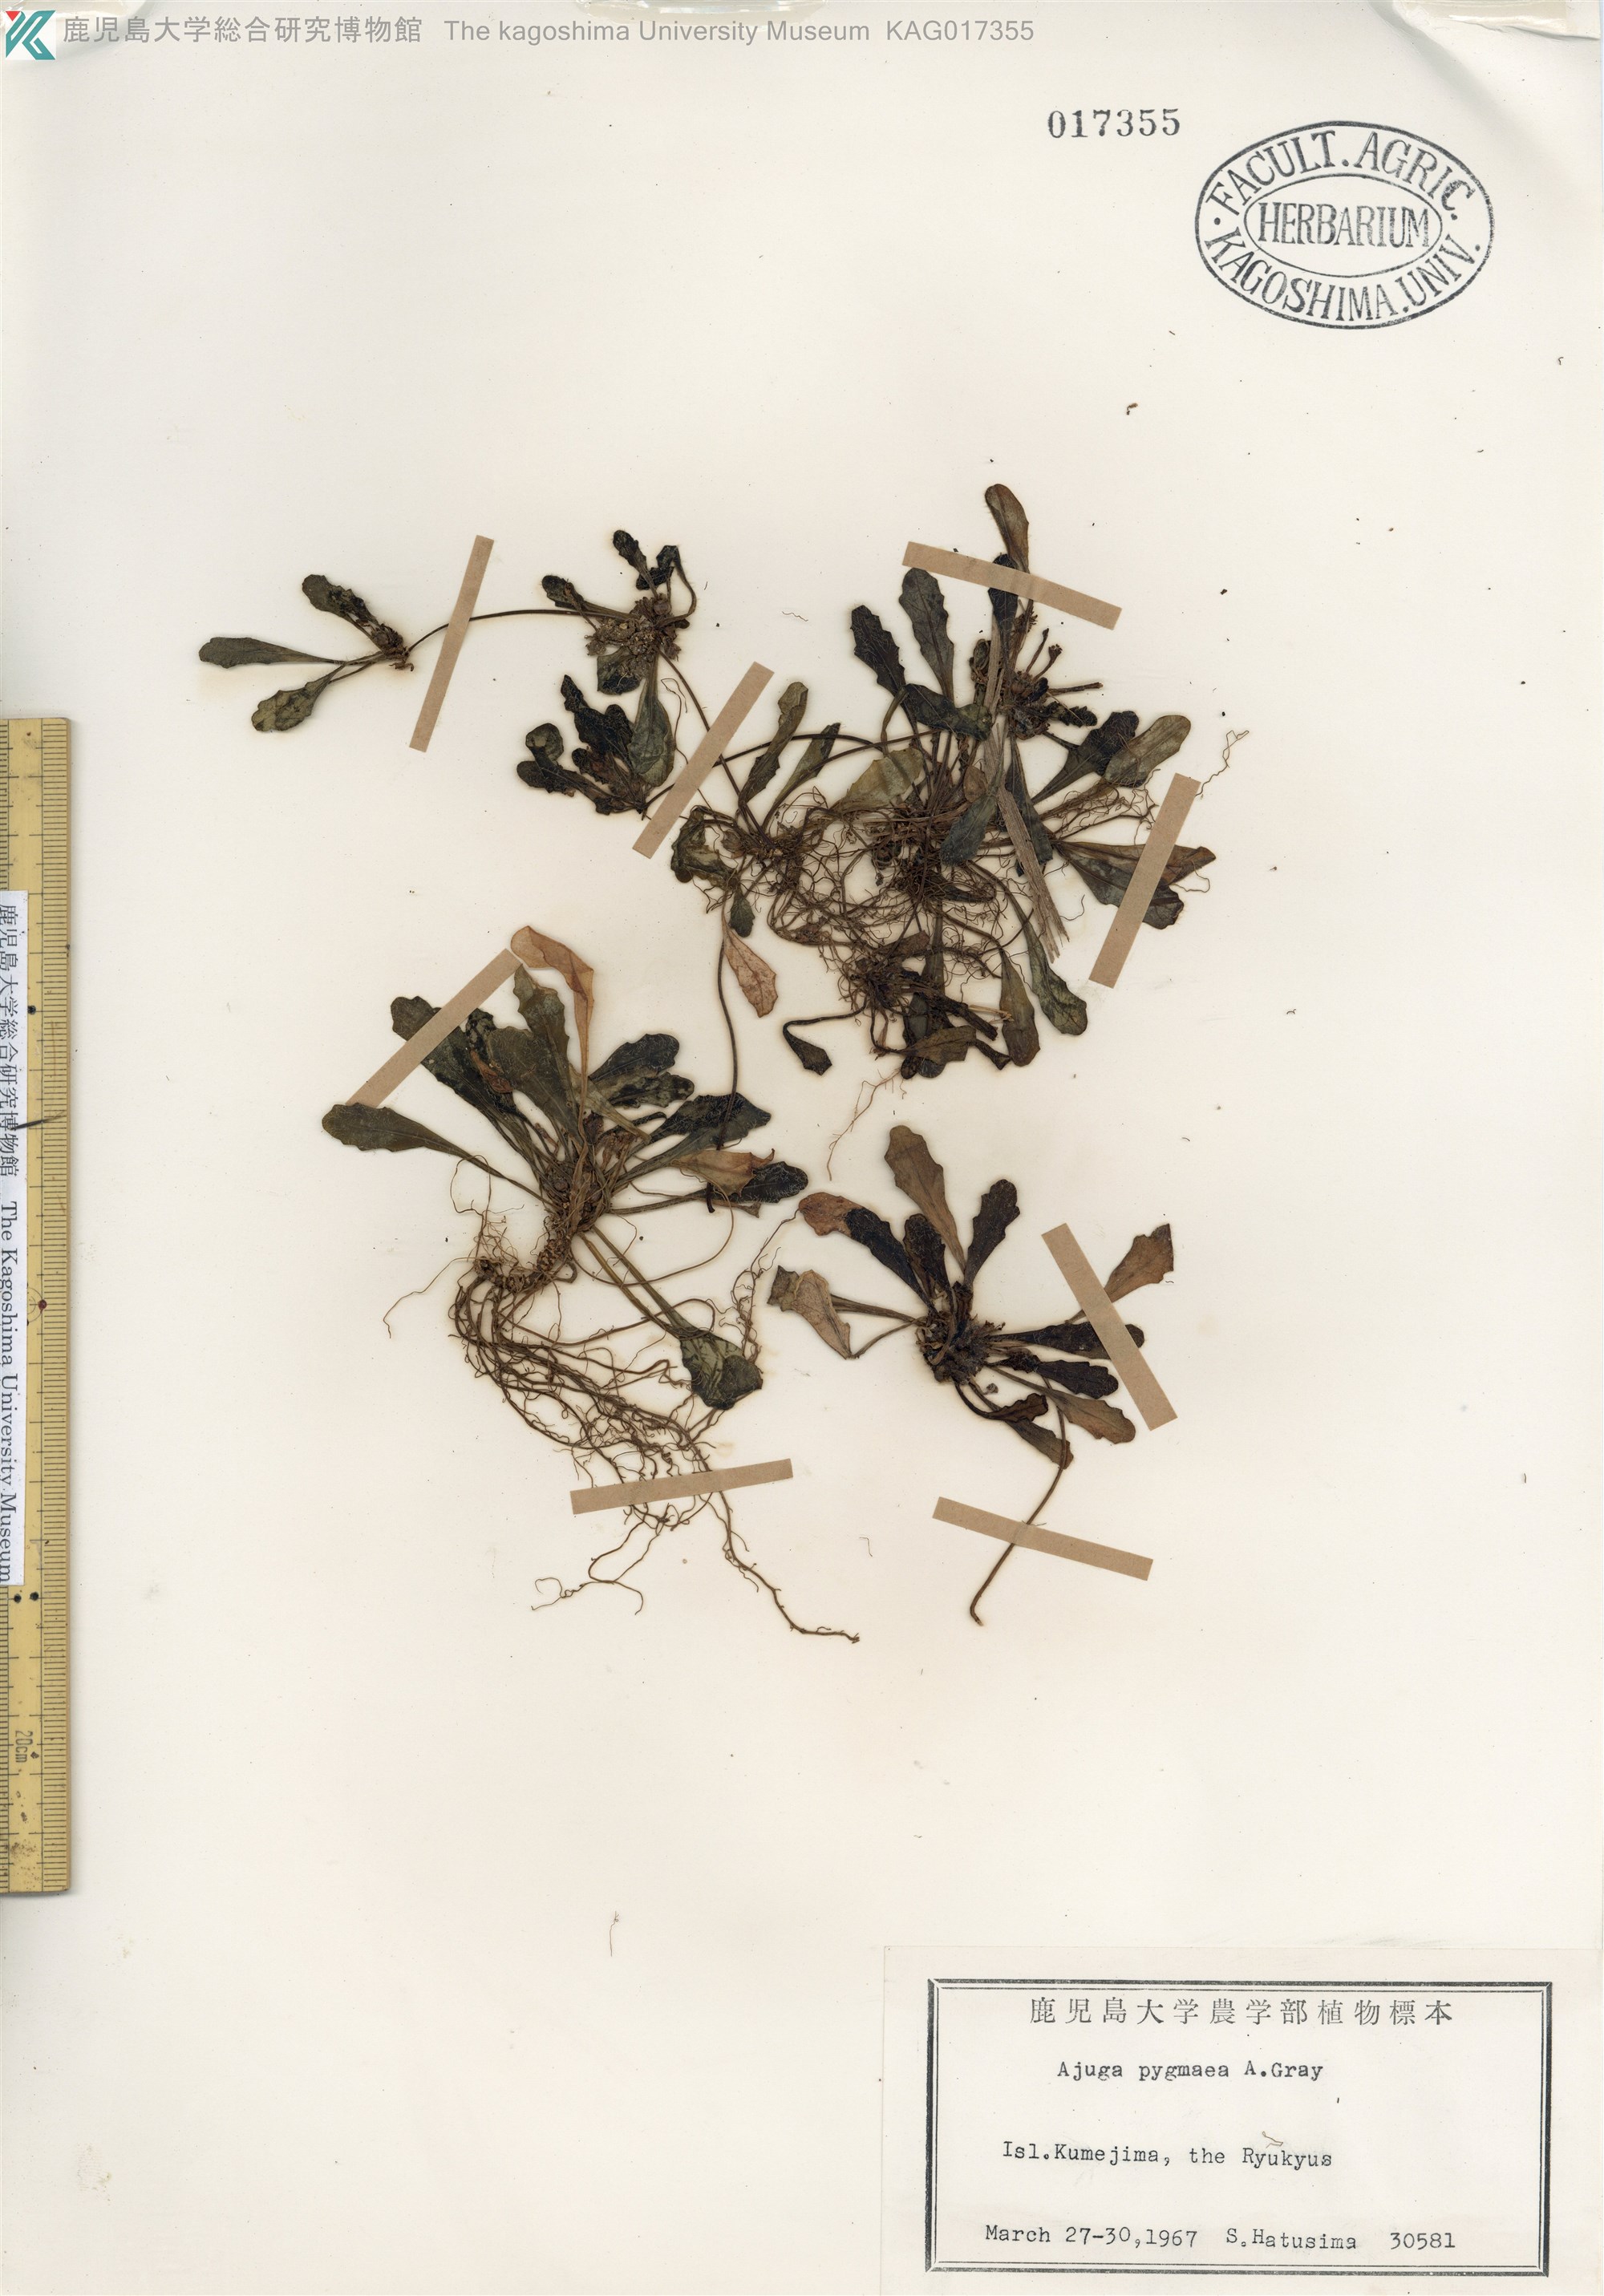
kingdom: Plantae
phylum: Tracheophyta
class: Magnoliopsida
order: Lamiales
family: Lamiaceae
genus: Ajuga
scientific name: Ajuga pygmaea
